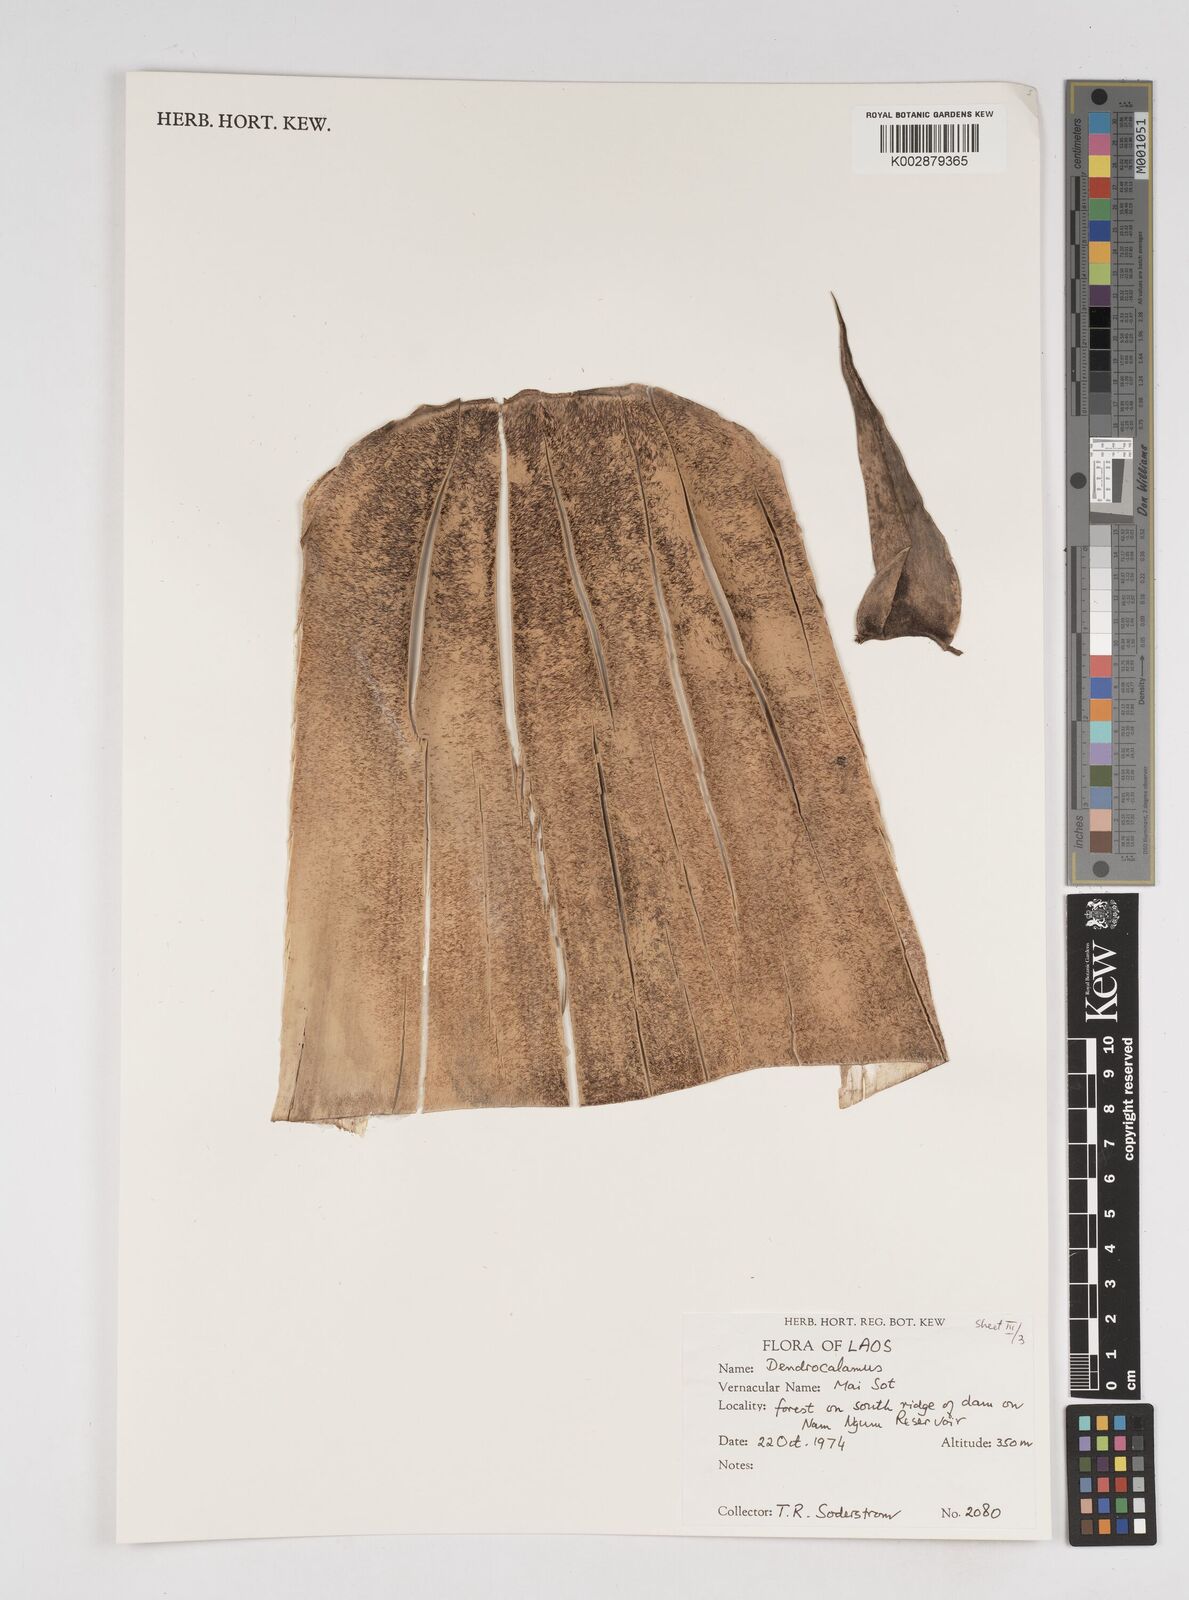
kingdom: Plantae
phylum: Tracheophyta
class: Liliopsida
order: Poales
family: Poaceae
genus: Dendrocalamus
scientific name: Dendrocalamus
